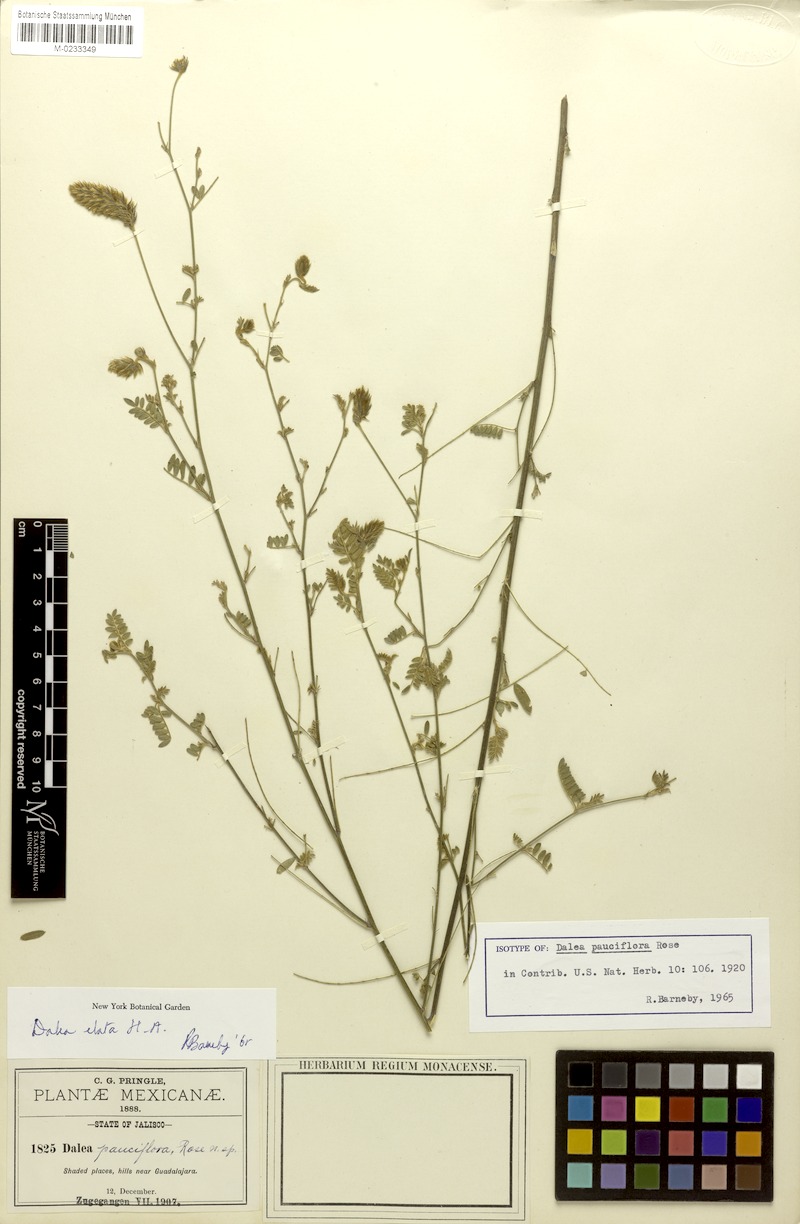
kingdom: Plantae
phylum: Tracheophyta
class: Magnoliopsida
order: Fabales
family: Fabaceae
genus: Dalea
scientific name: Dalea elata
